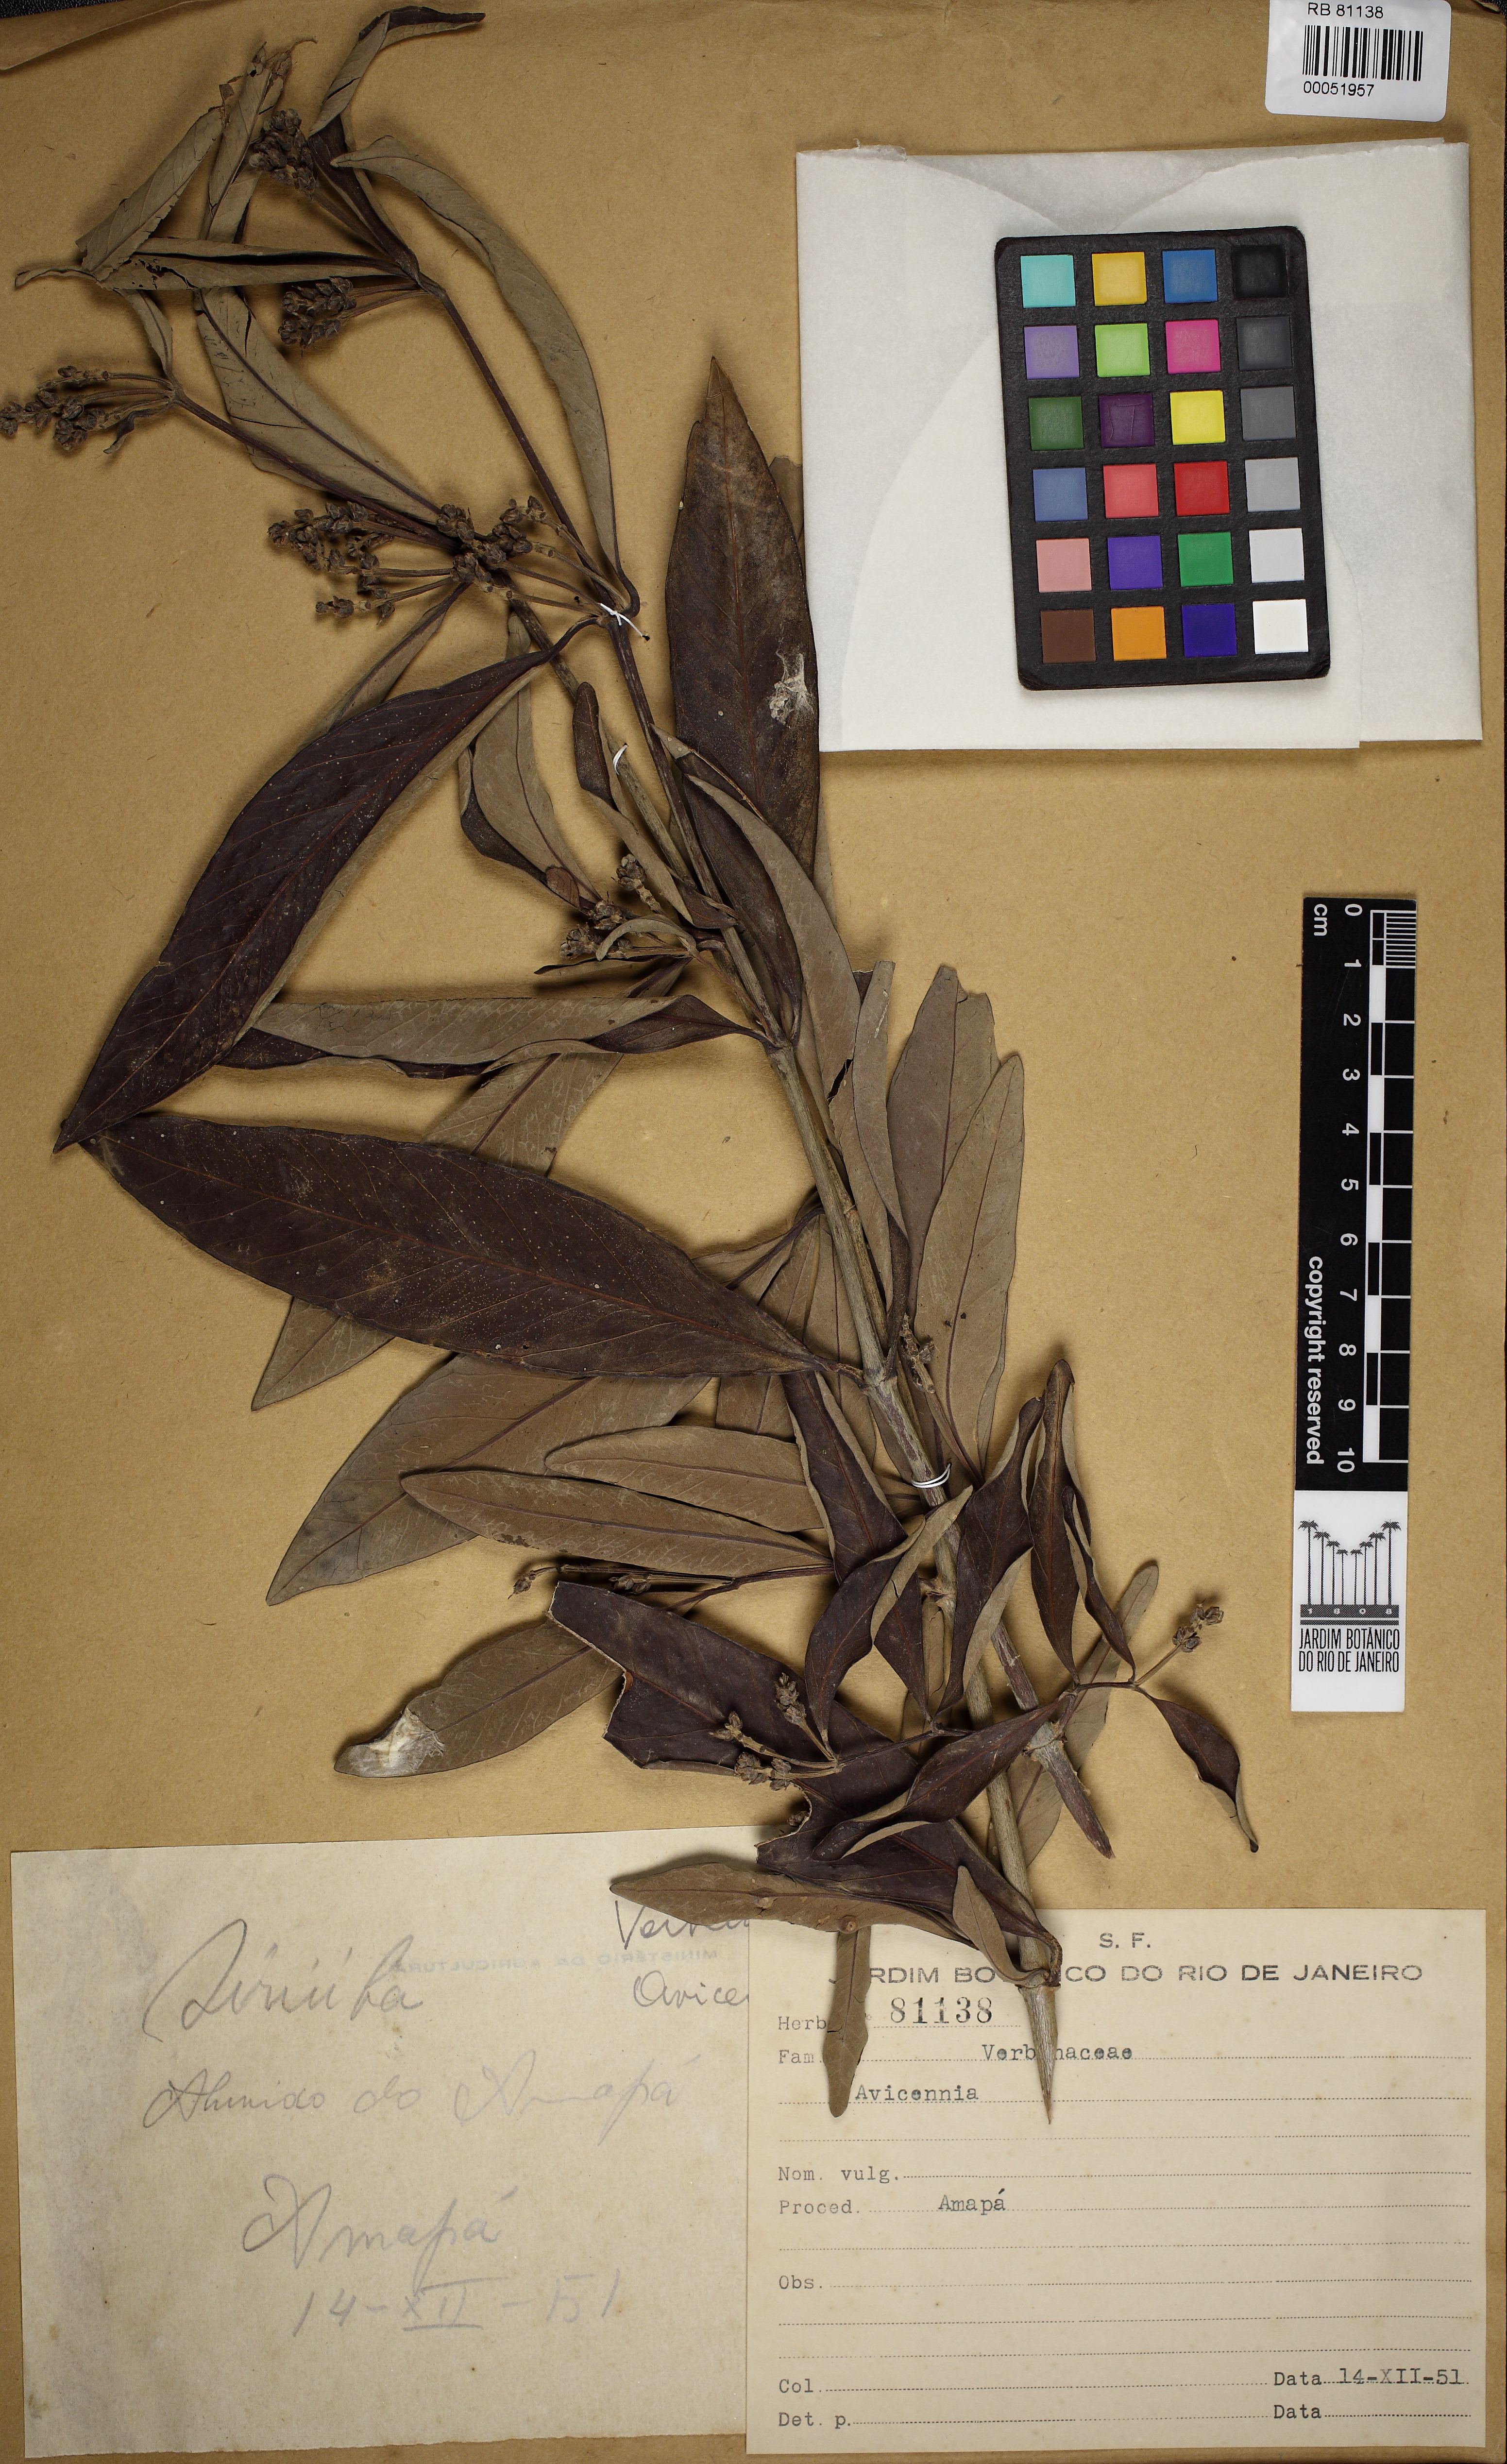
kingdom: Plantae
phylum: Tracheophyta
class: Magnoliopsida
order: Lamiales
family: Acanthaceae
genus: Avicennia
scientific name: Avicennia
